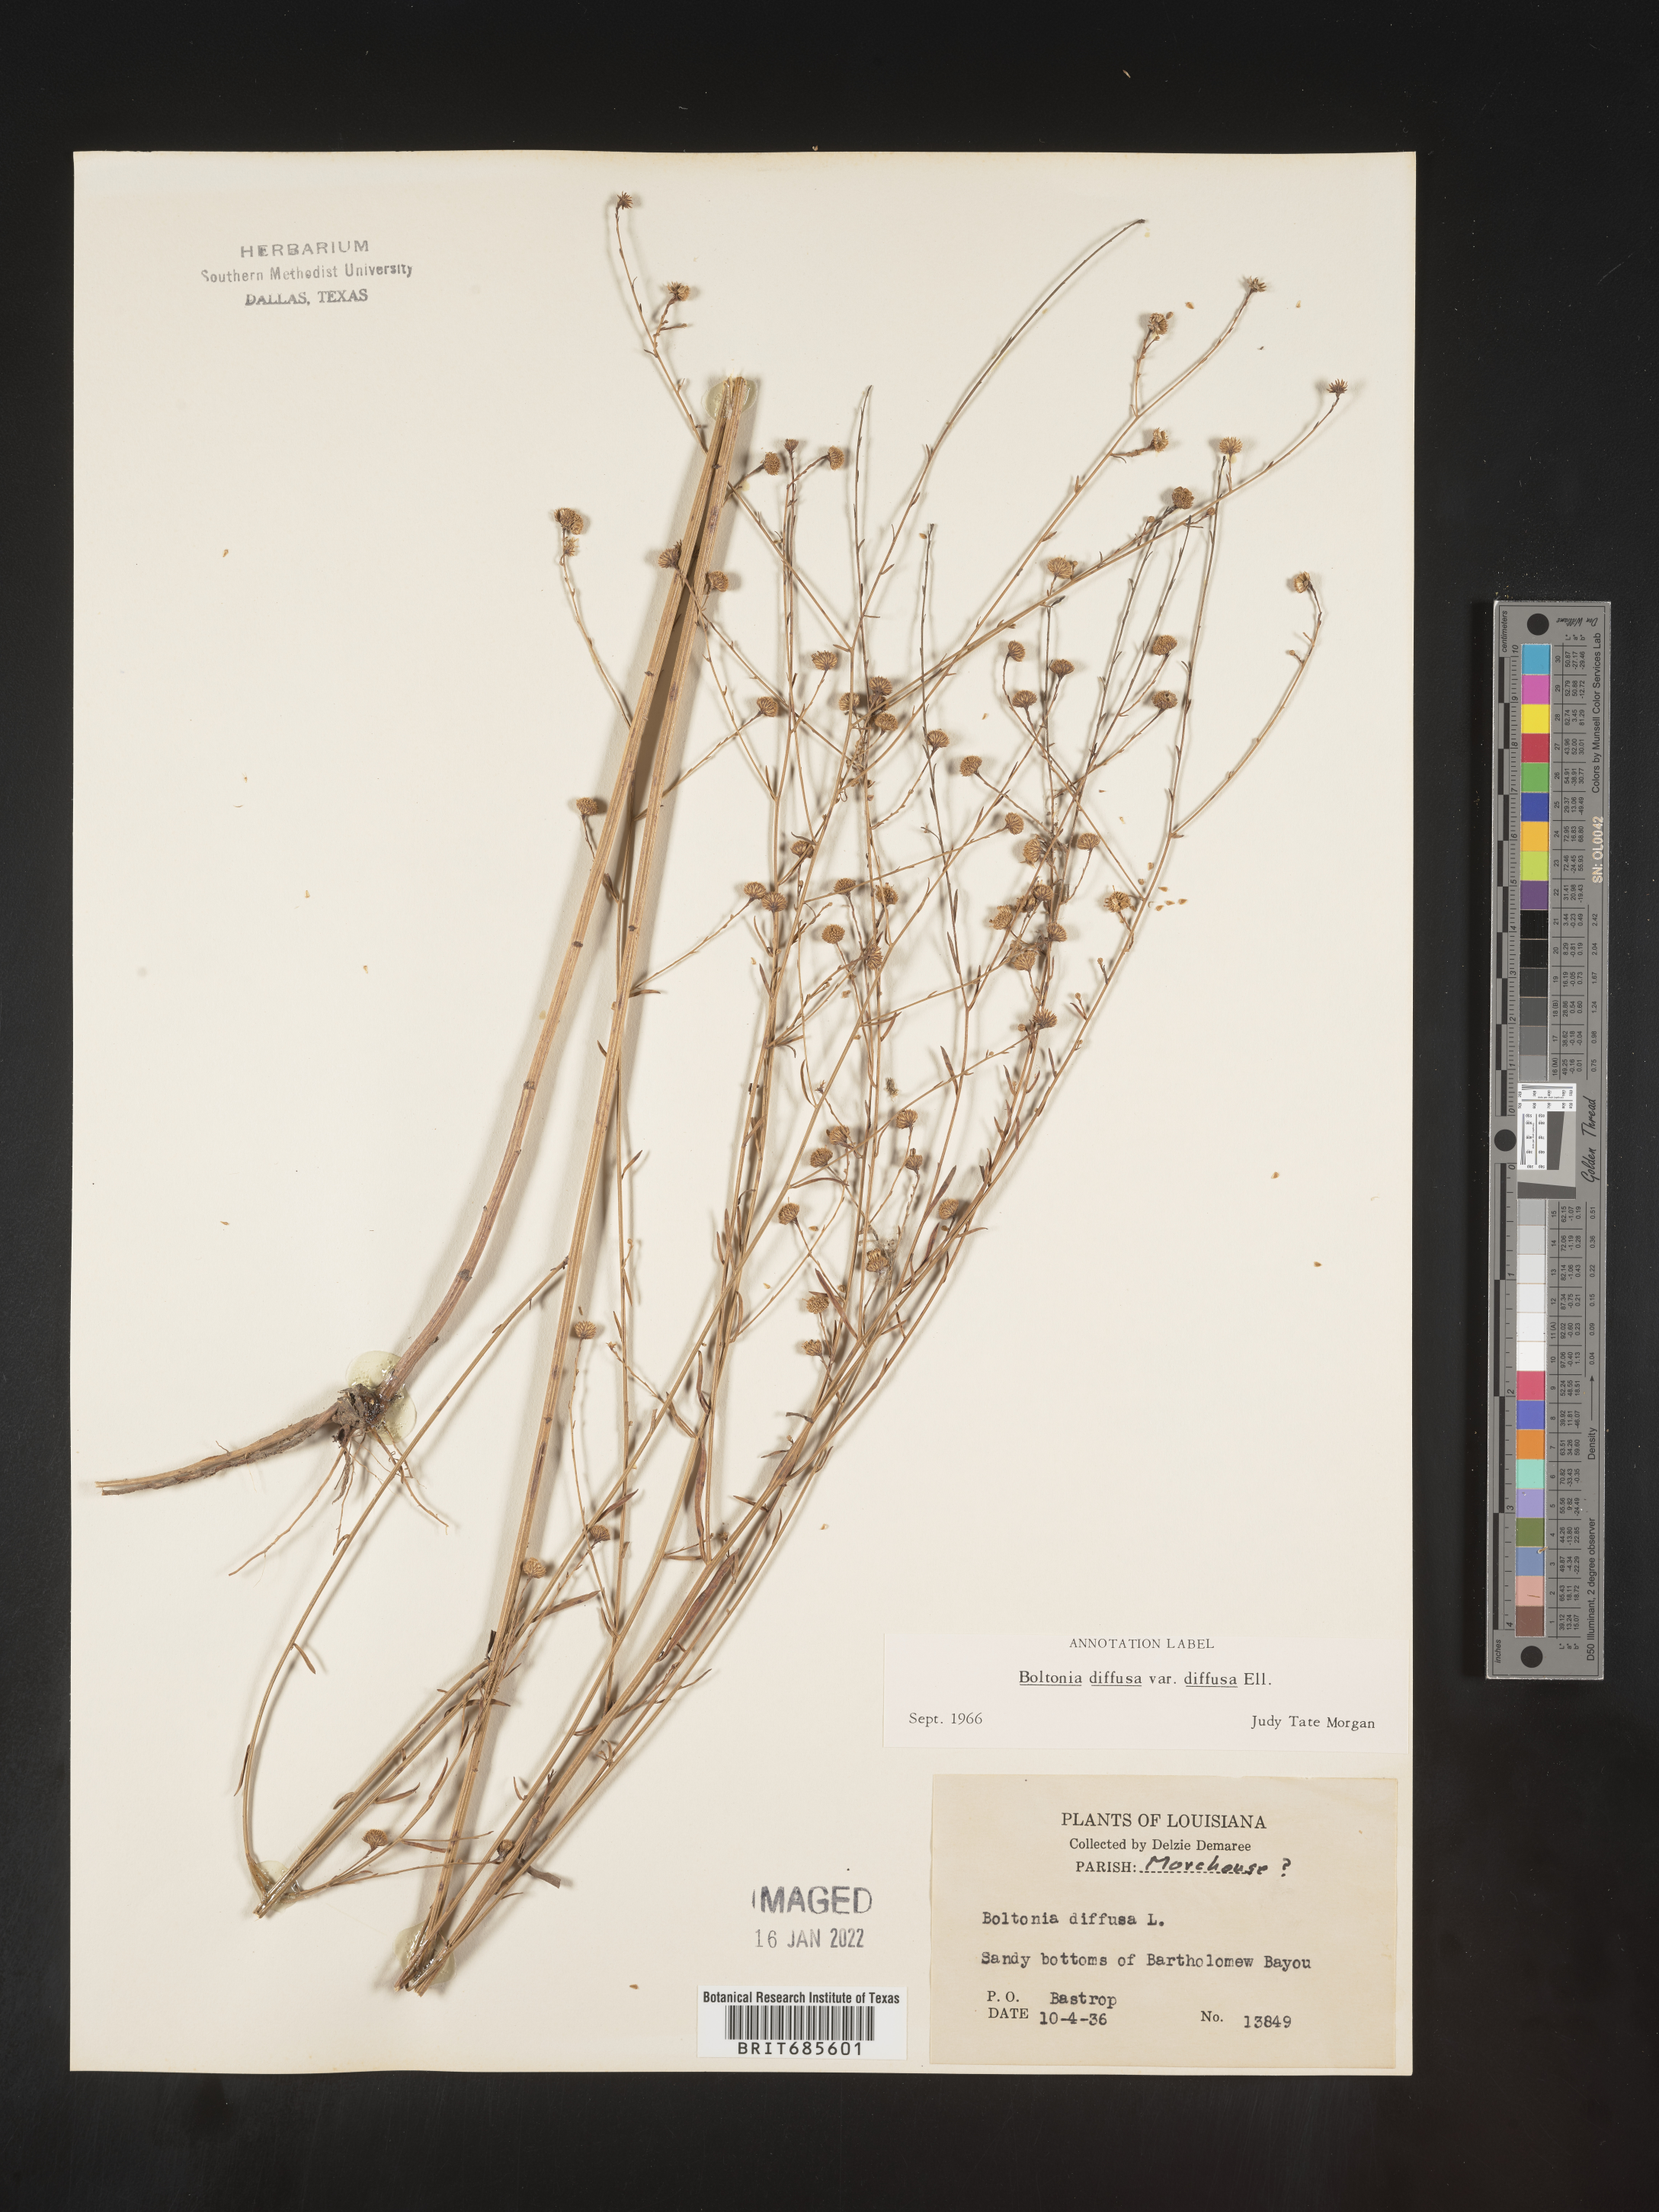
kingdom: Plantae
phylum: Tracheophyta
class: Magnoliopsida
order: Asterales
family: Asteraceae
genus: Boltonia
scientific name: Boltonia diffusa
